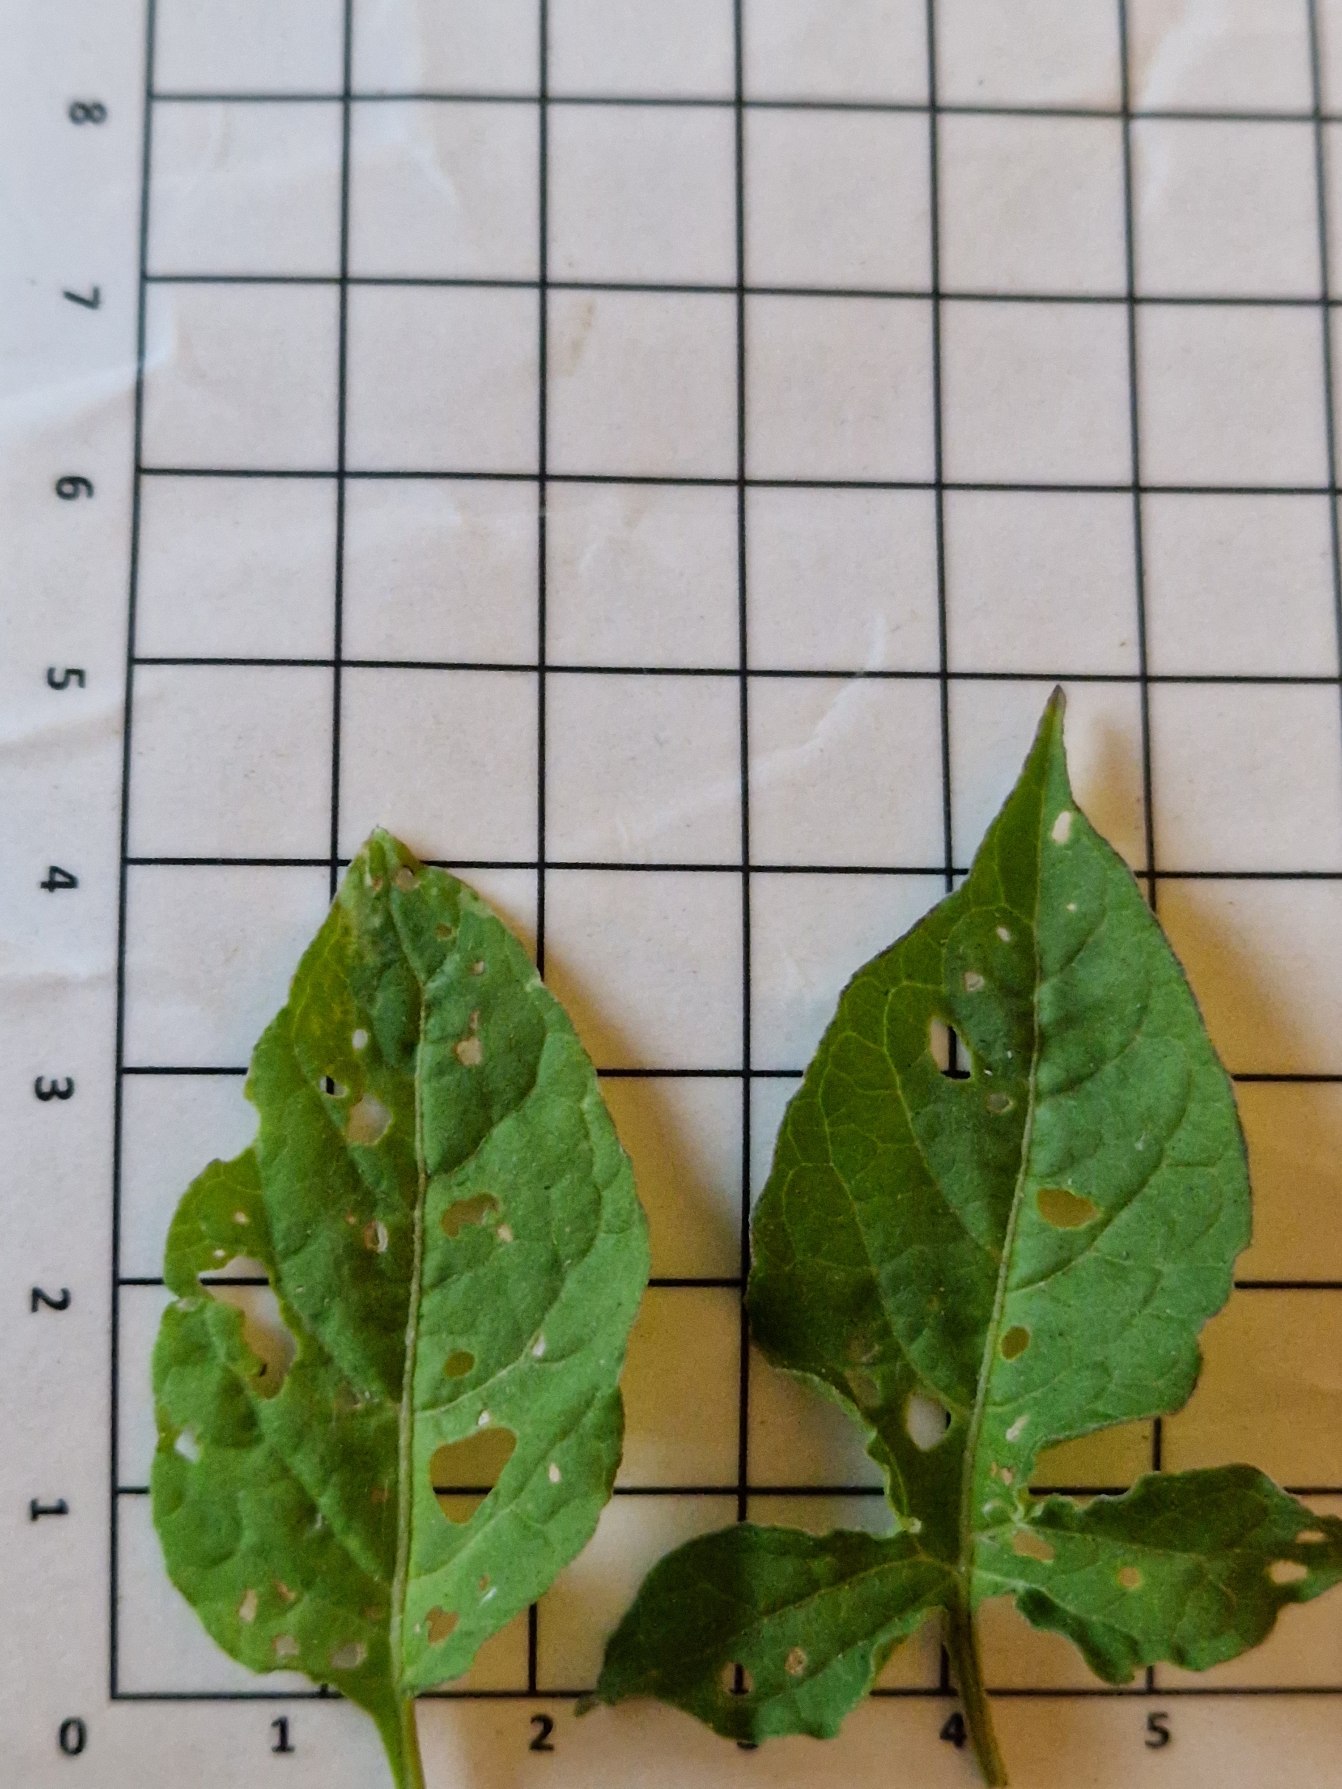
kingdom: Plantae
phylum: Tracheophyta
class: Magnoliopsida
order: Solanales
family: Solanaceae
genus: Solanum
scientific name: Solanum dulcamara
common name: Bittersød natskygge
